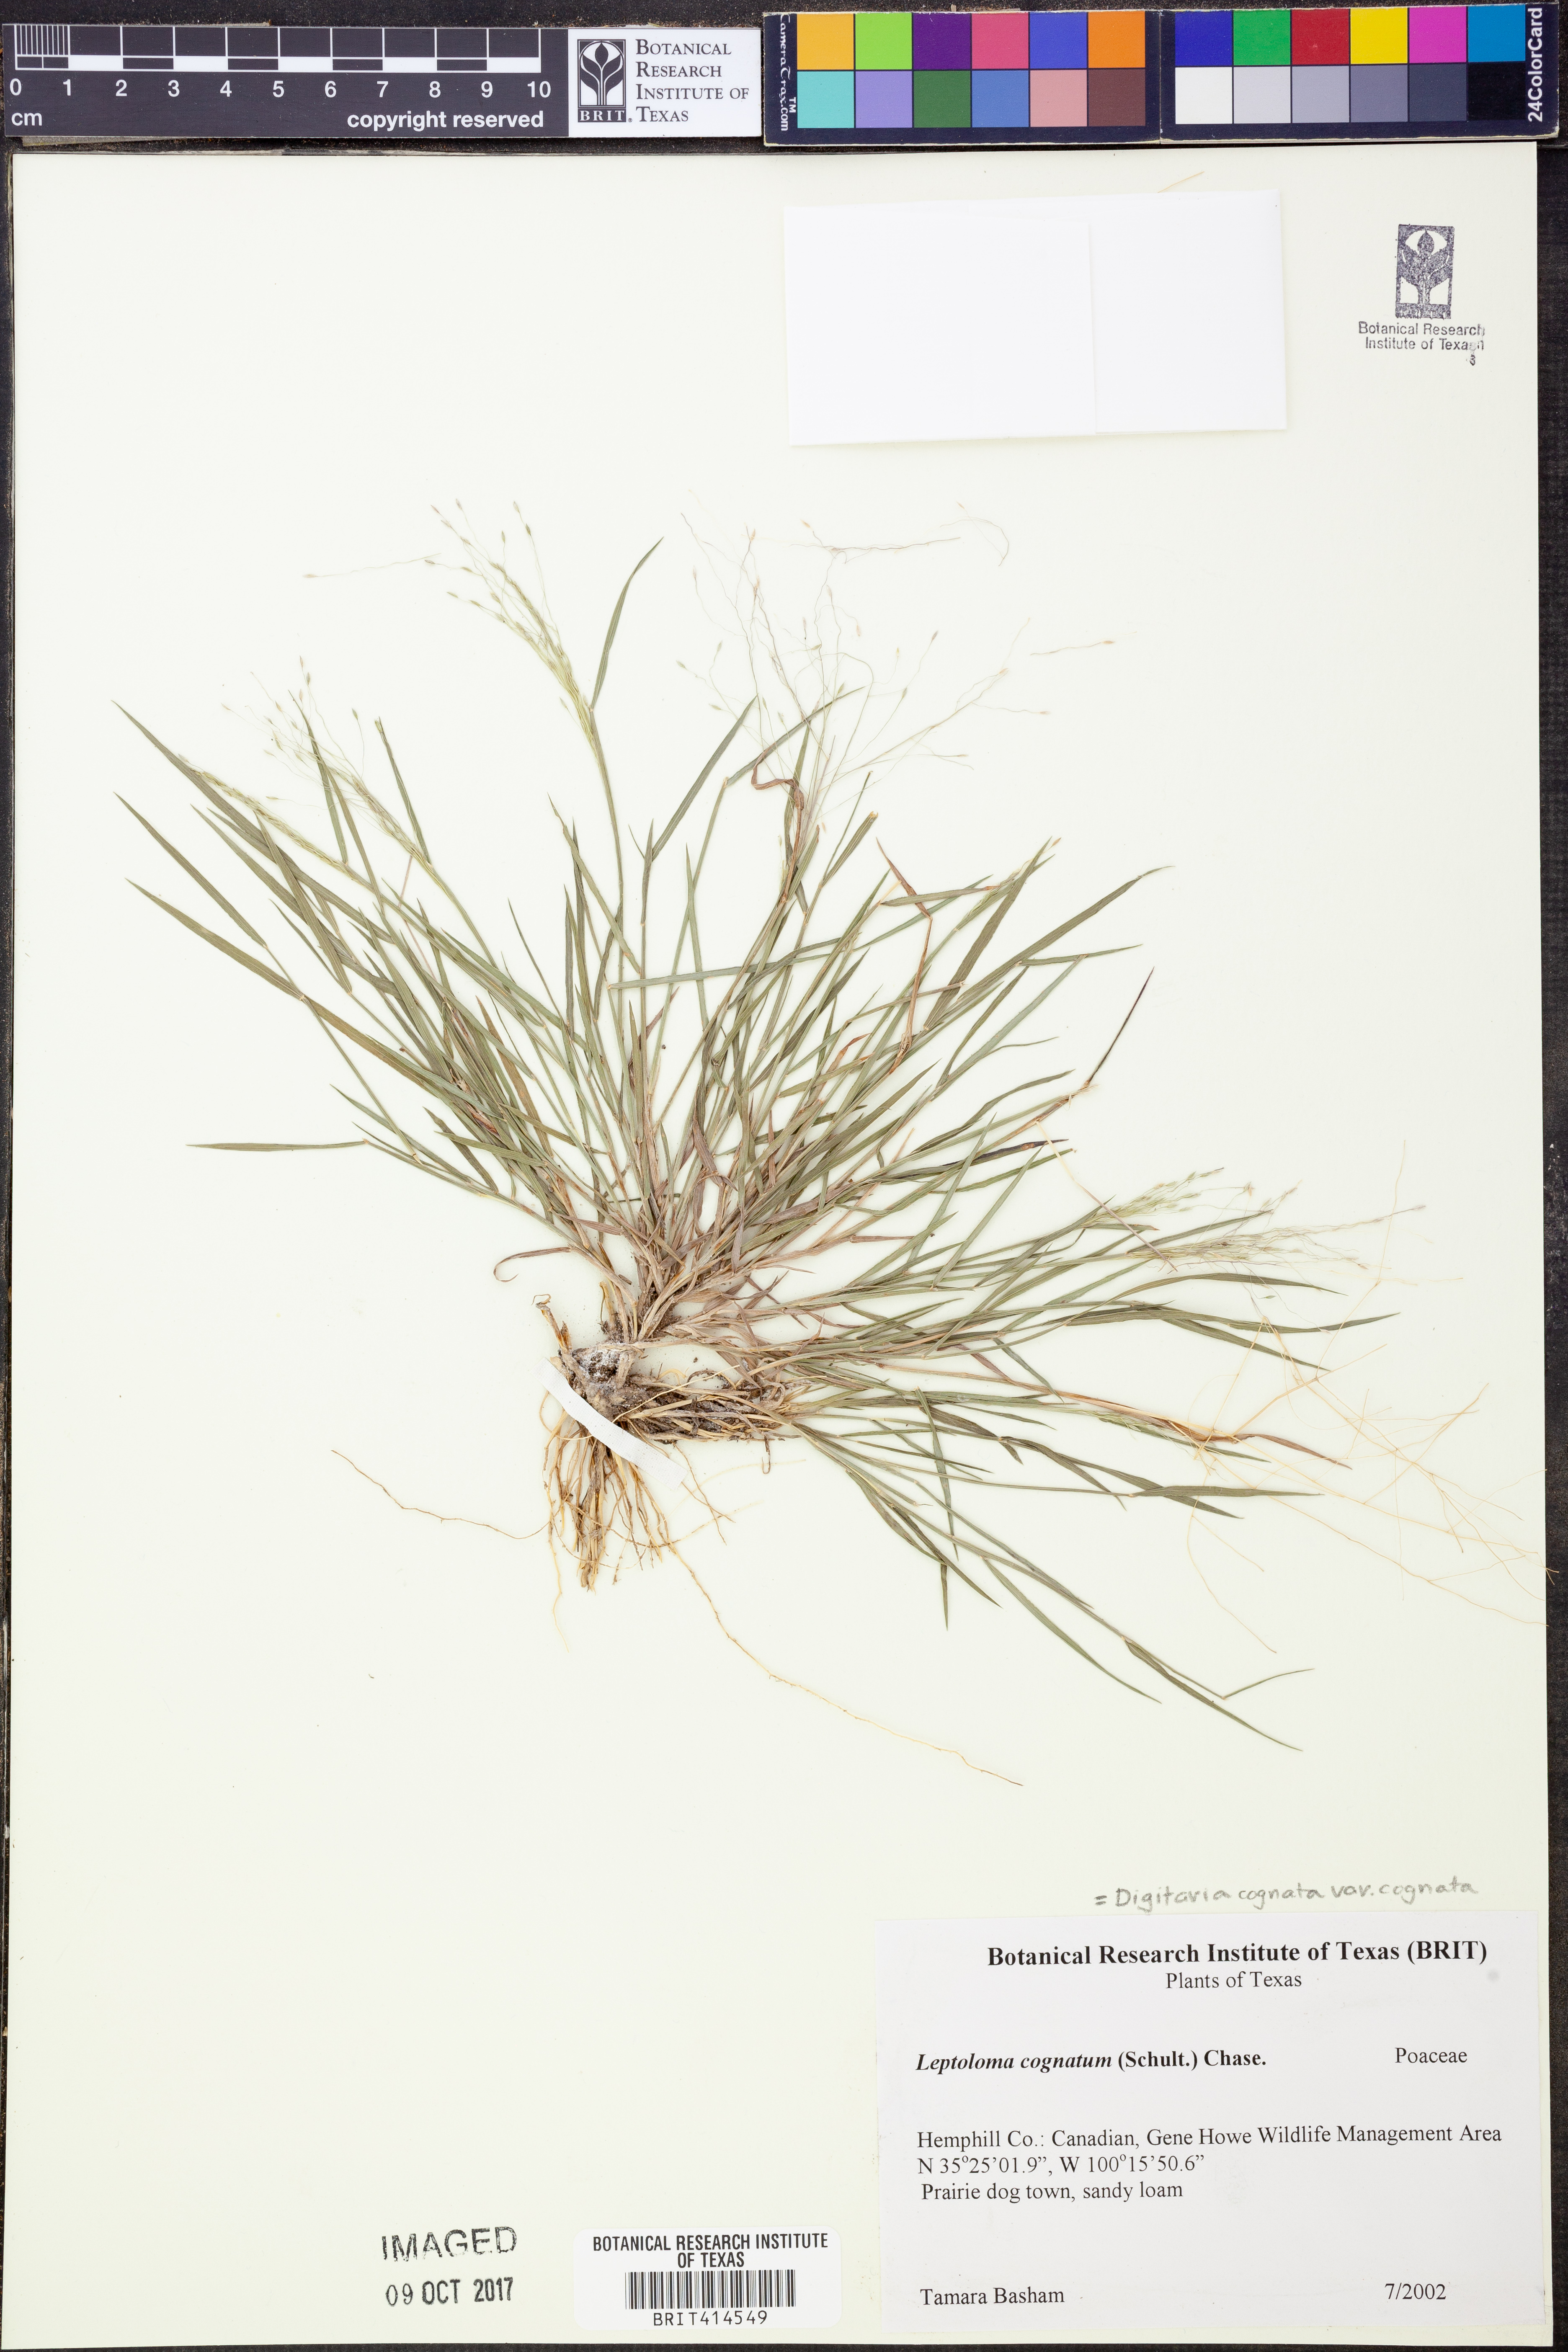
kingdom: Plantae
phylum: Tracheophyta
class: Liliopsida
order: Poales
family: Poaceae
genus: Digitaria
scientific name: Digitaria cognata
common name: Fall witchgrass
